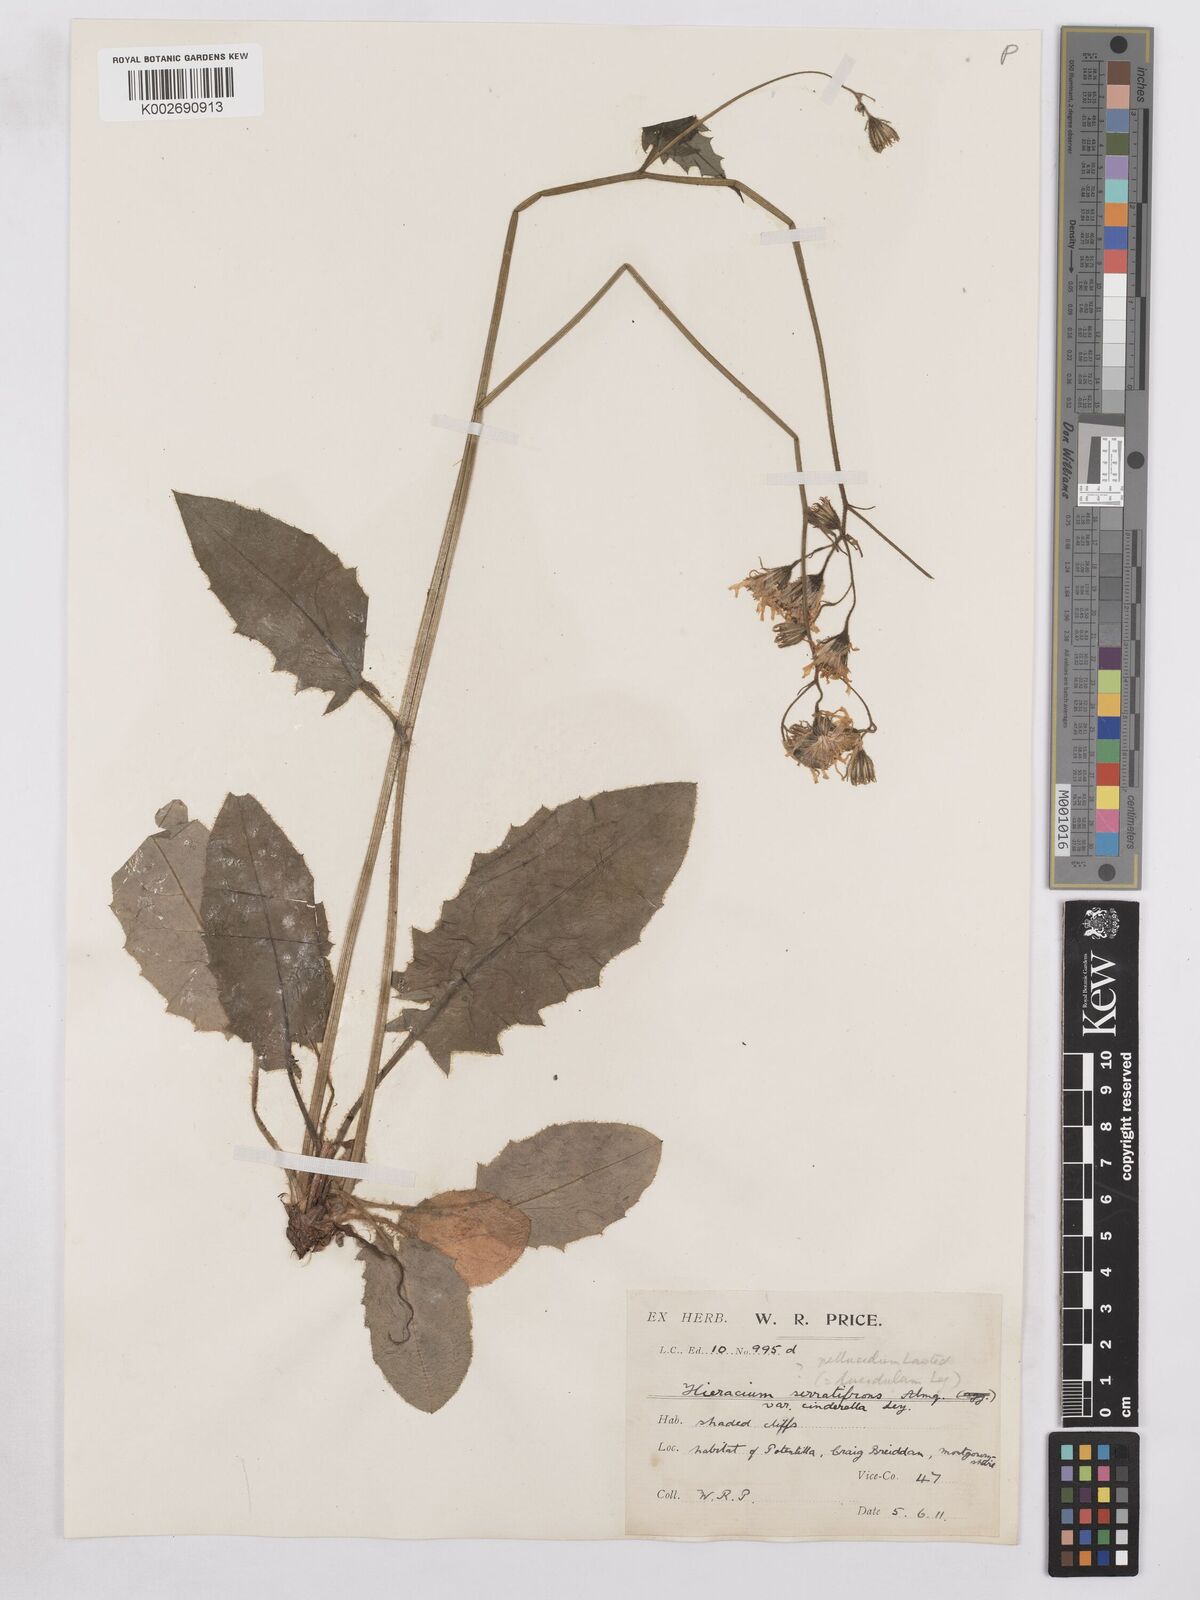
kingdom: Plantae
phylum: Tracheophyta
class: Magnoliopsida
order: Asterales
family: Asteraceae
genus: Hieracium
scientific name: Hieracium murorum
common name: Wall hawkweed
